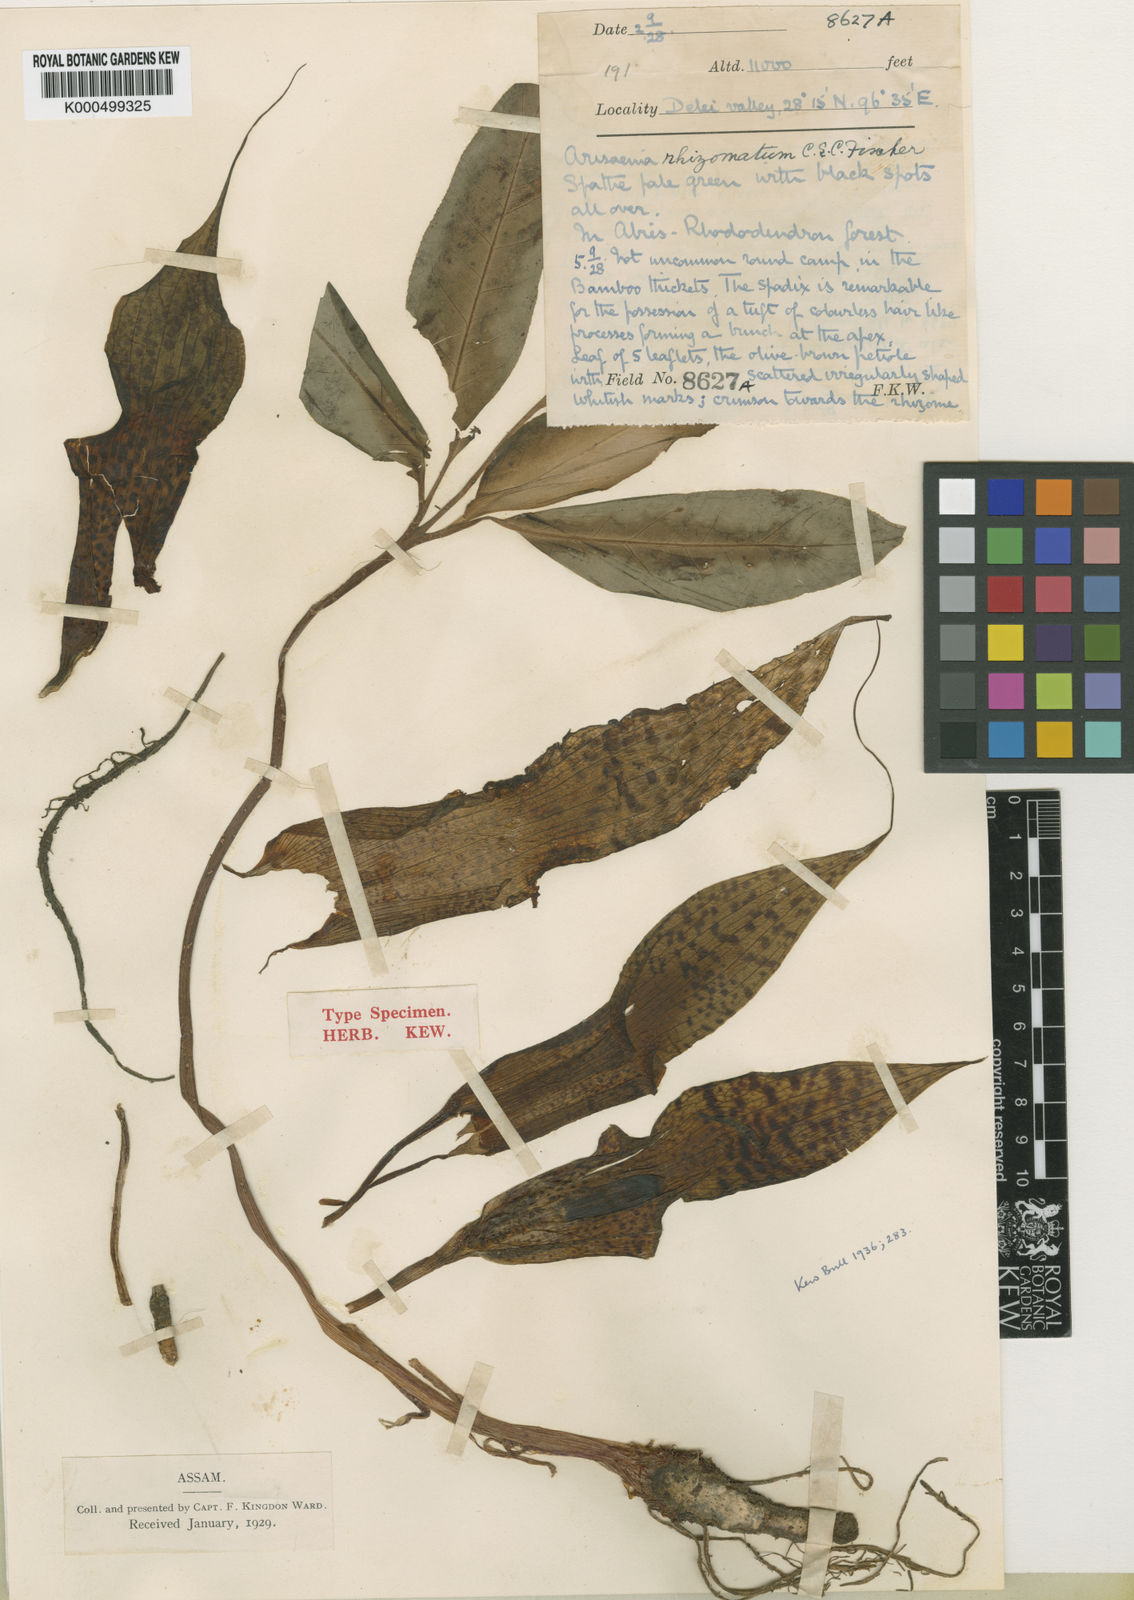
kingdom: Plantae
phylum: Tracheophyta
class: Liliopsida
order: Alismatales
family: Araceae
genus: Arisaema
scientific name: Arisaema decipiens
